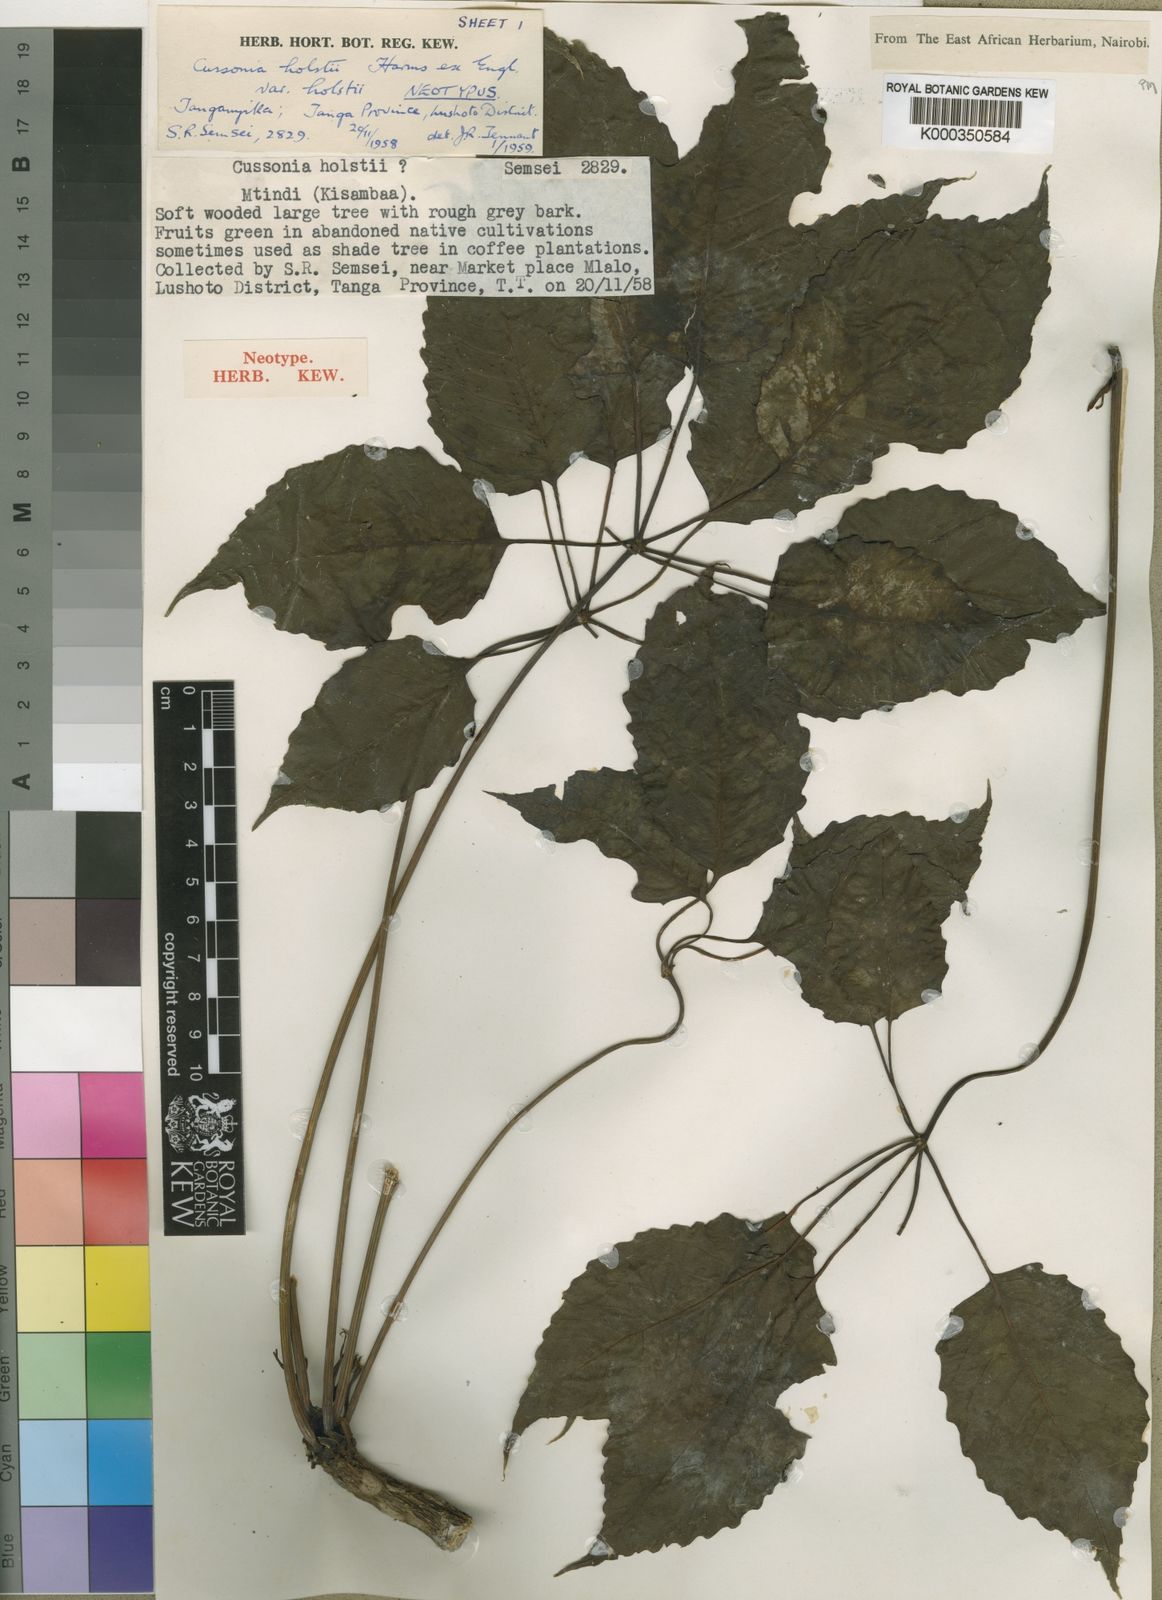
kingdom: Plantae
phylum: Tracheophyta
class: Magnoliopsida
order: Apiales
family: Araliaceae
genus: Cussonia
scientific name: Cussonia holstii
